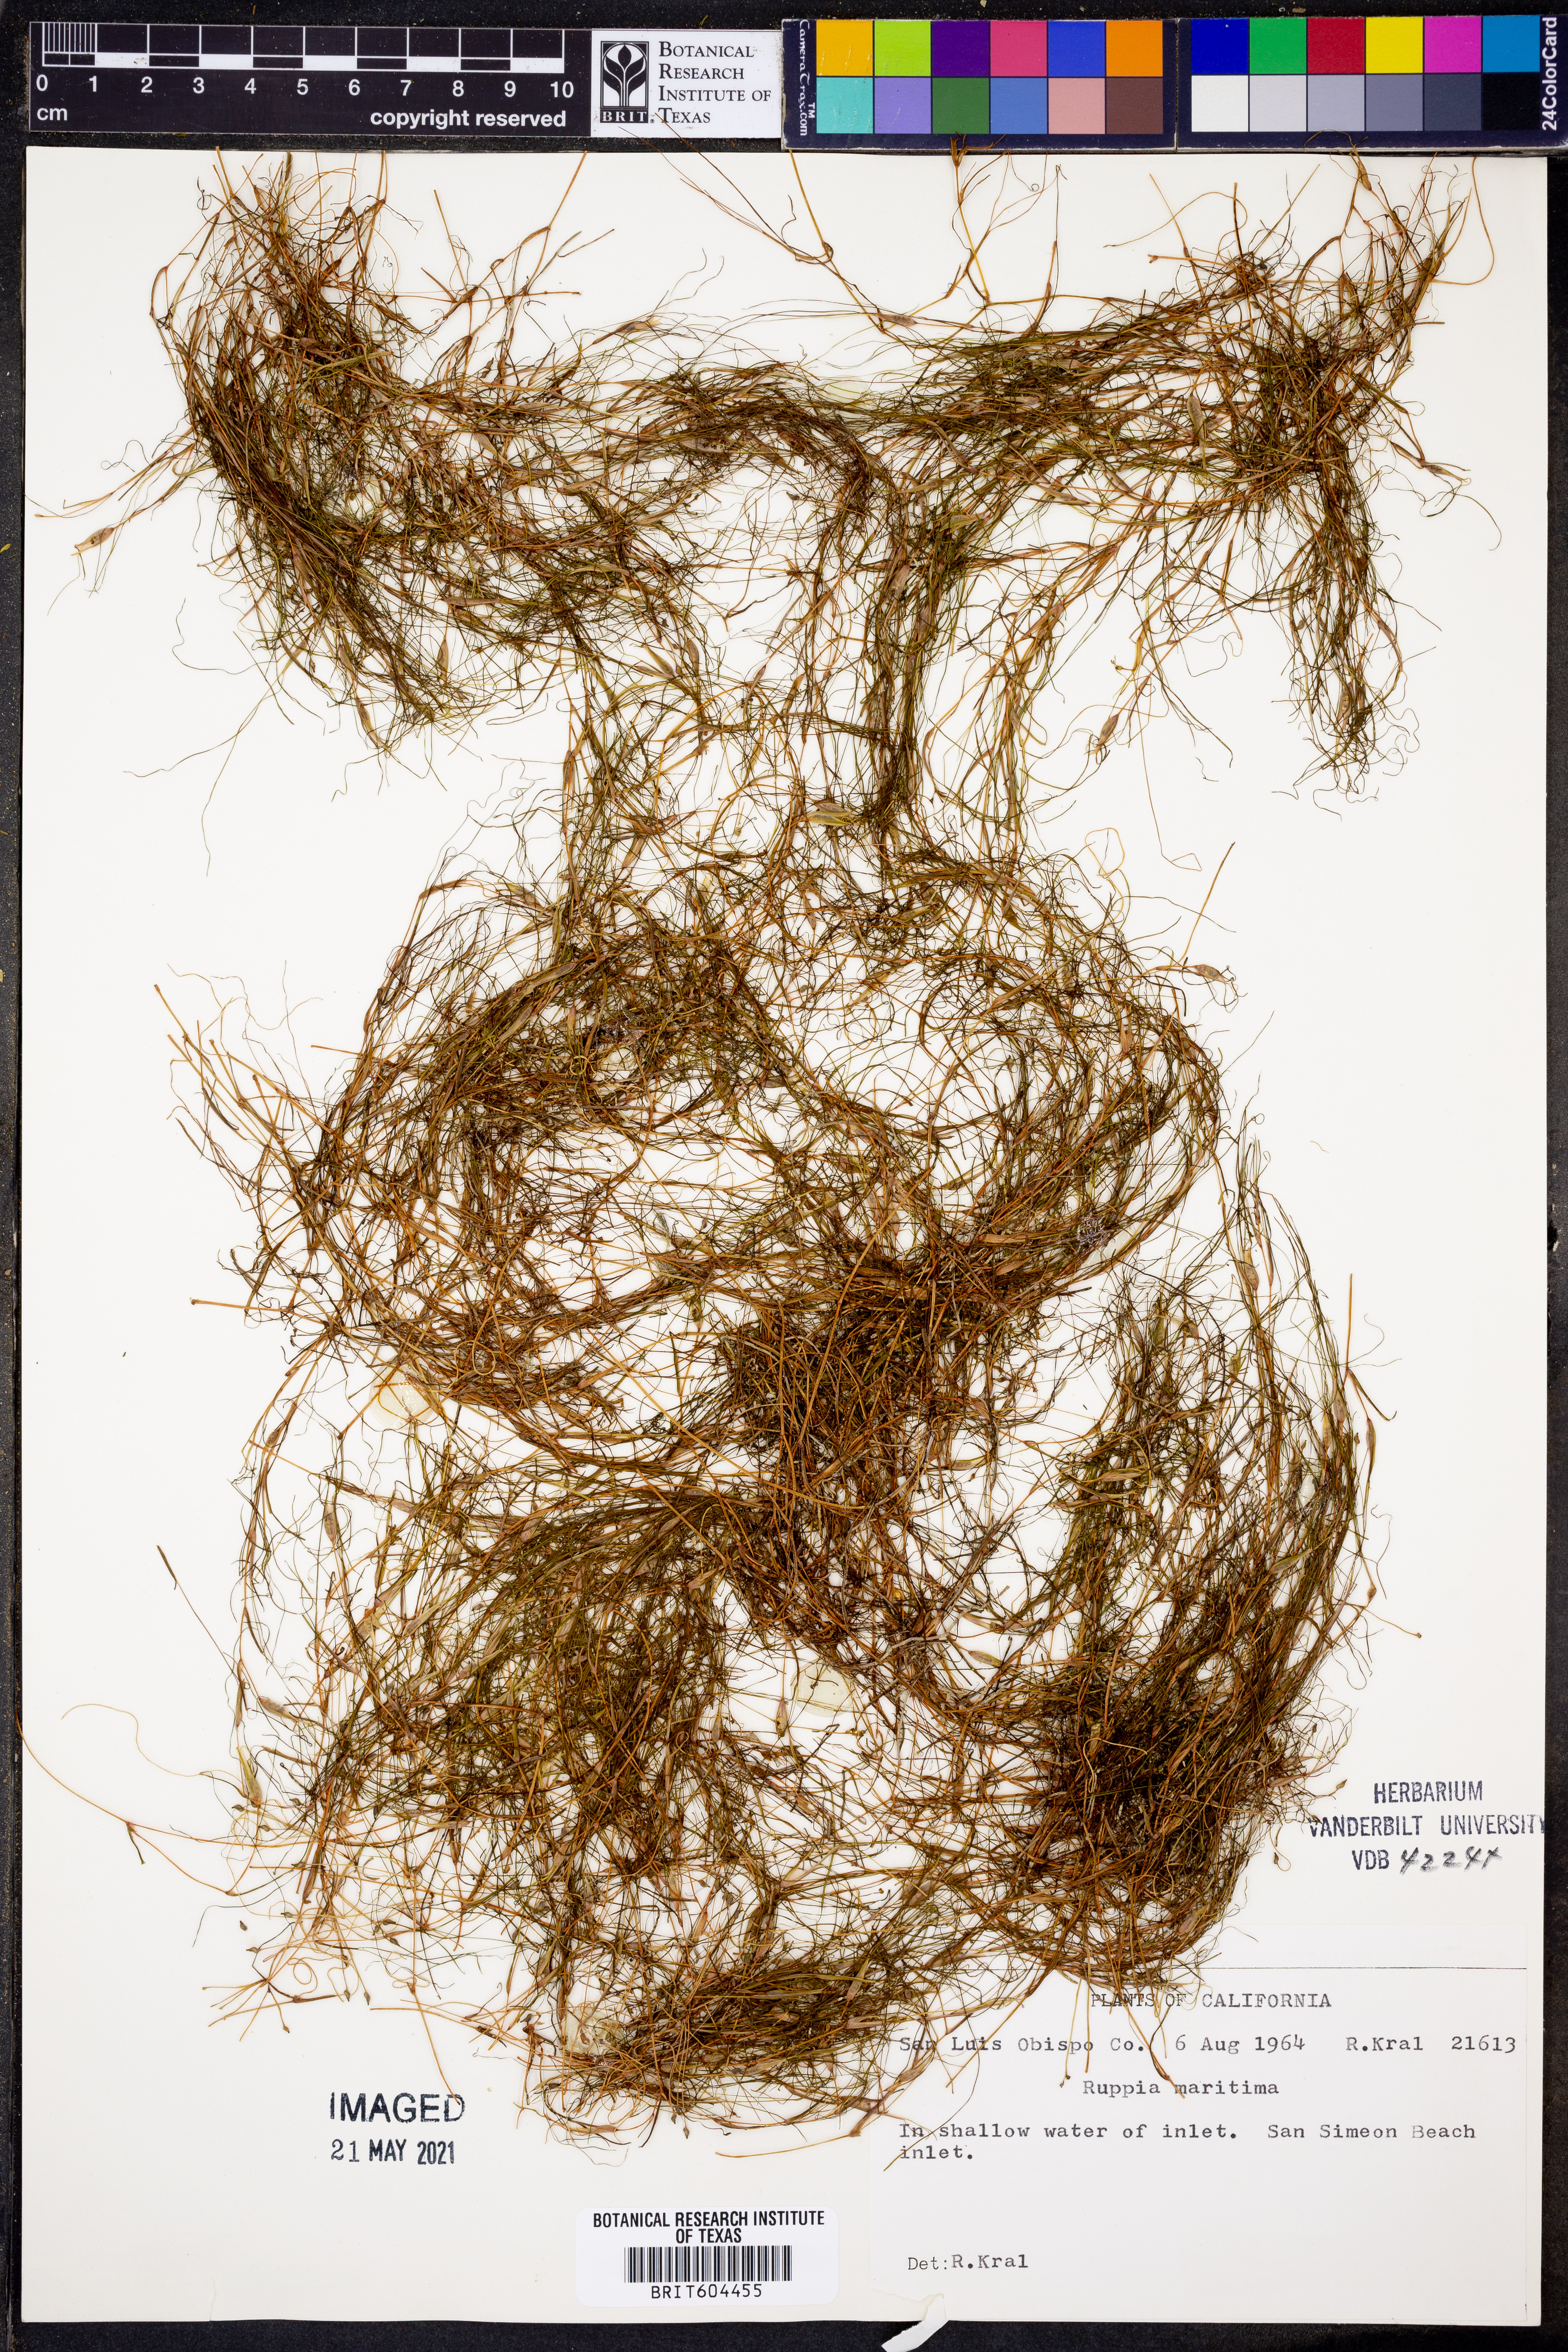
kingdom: Plantae
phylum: Tracheophyta
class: Liliopsida
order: Alismatales
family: Ruppiaceae
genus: Ruppia
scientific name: Ruppia maritima
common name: Beaked tasselweed
